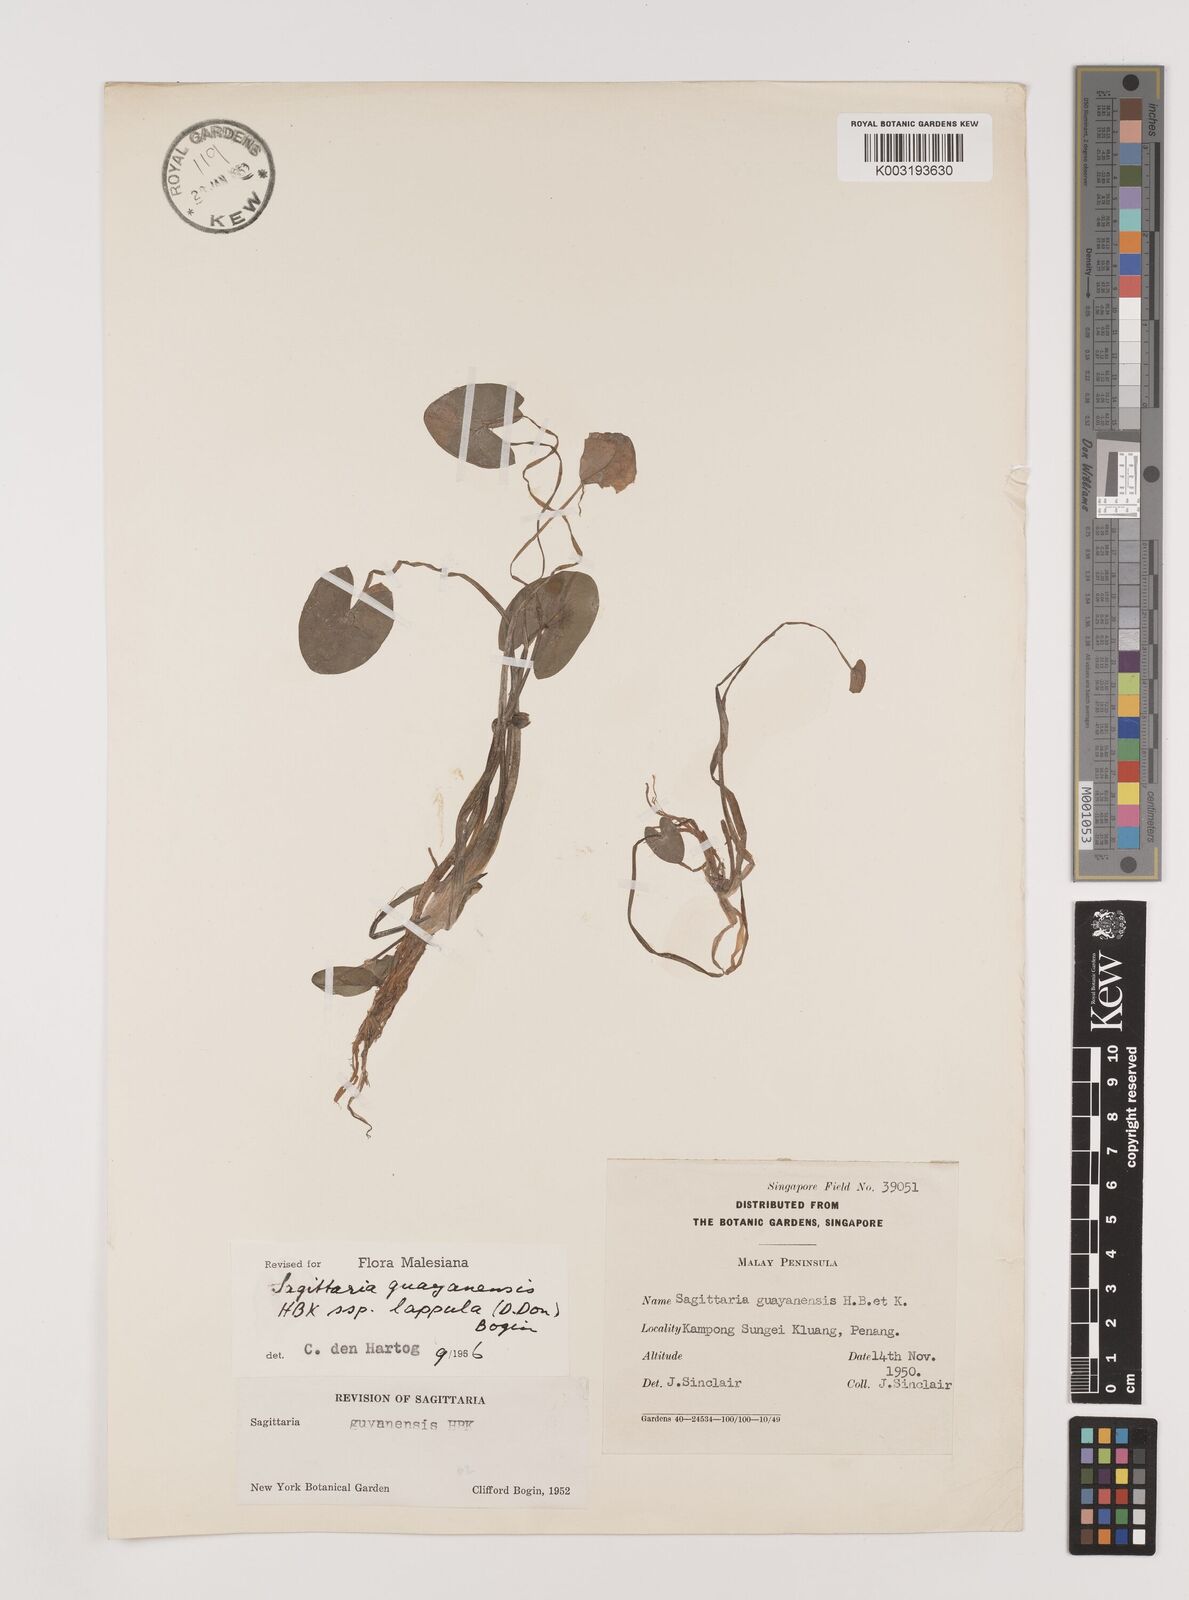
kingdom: Plantae
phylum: Tracheophyta
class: Liliopsida
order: Alismatales
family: Alismataceae
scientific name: Alismataceae
